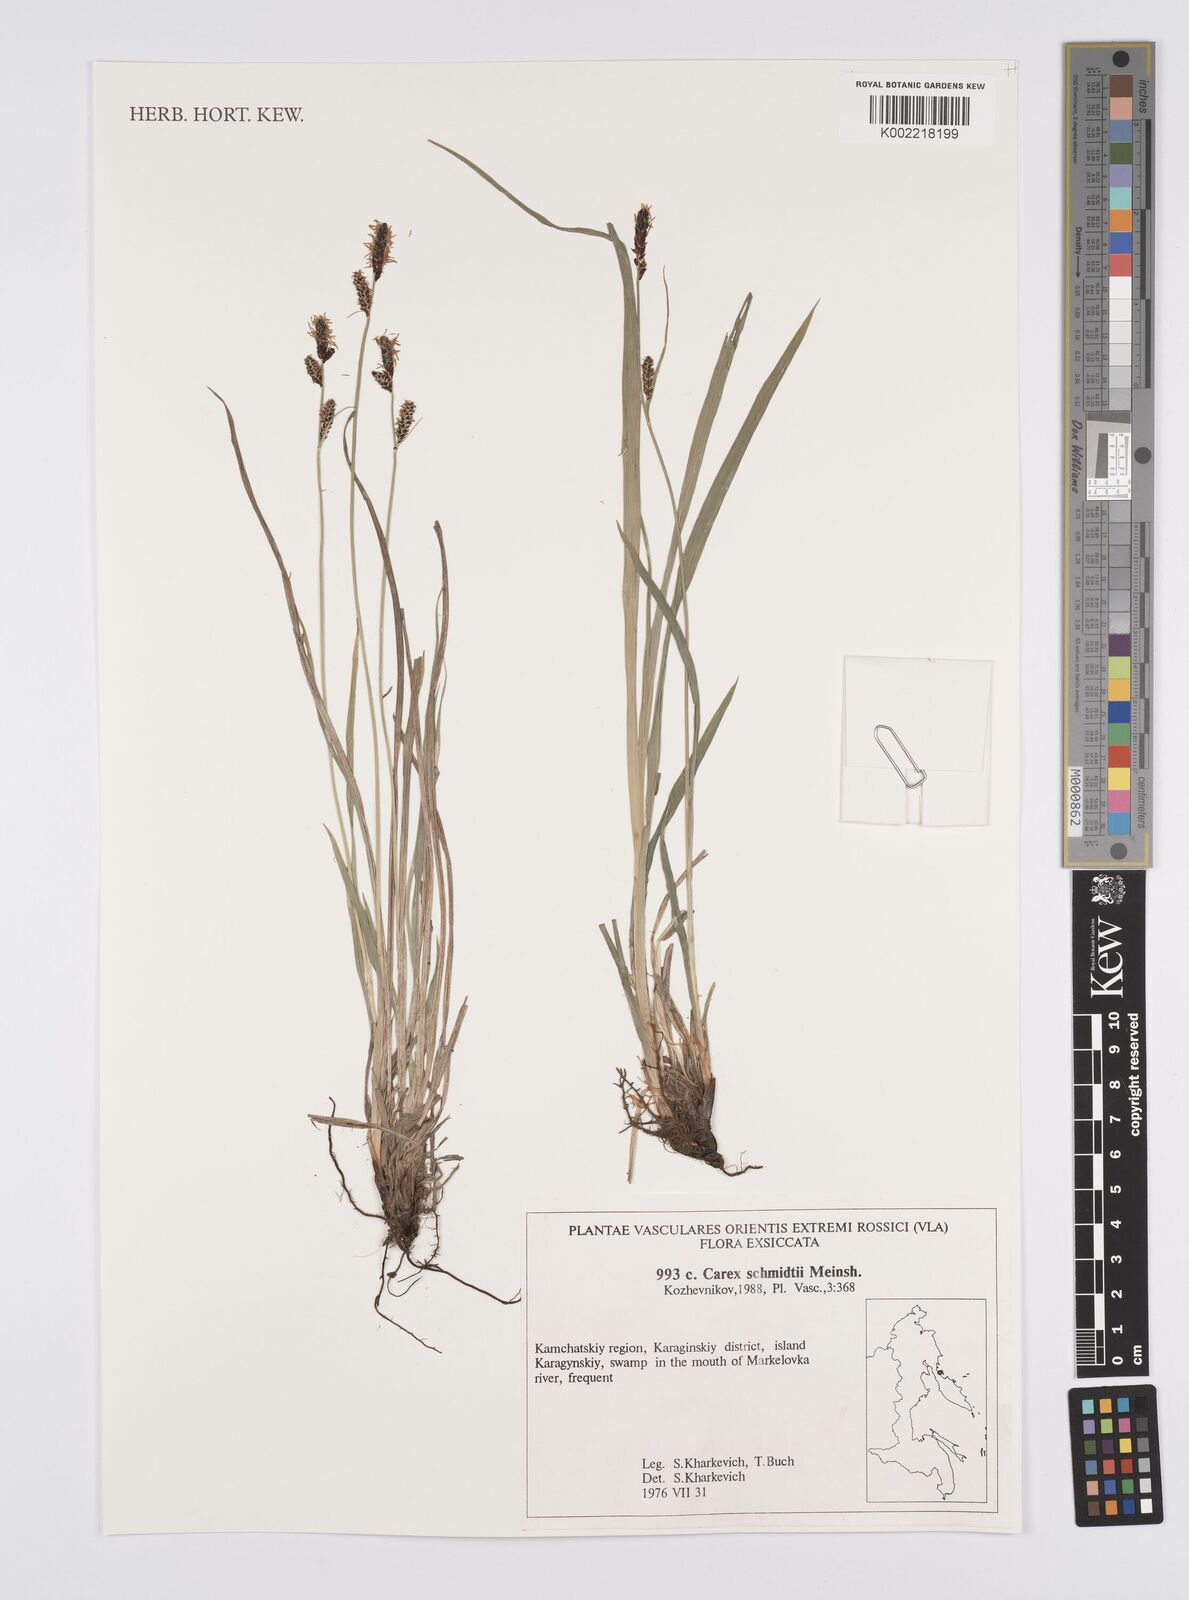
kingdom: Plantae
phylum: Tracheophyta
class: Liliopsida
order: Poales
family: Cyperaceae
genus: Carex
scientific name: Carex schmidtii
